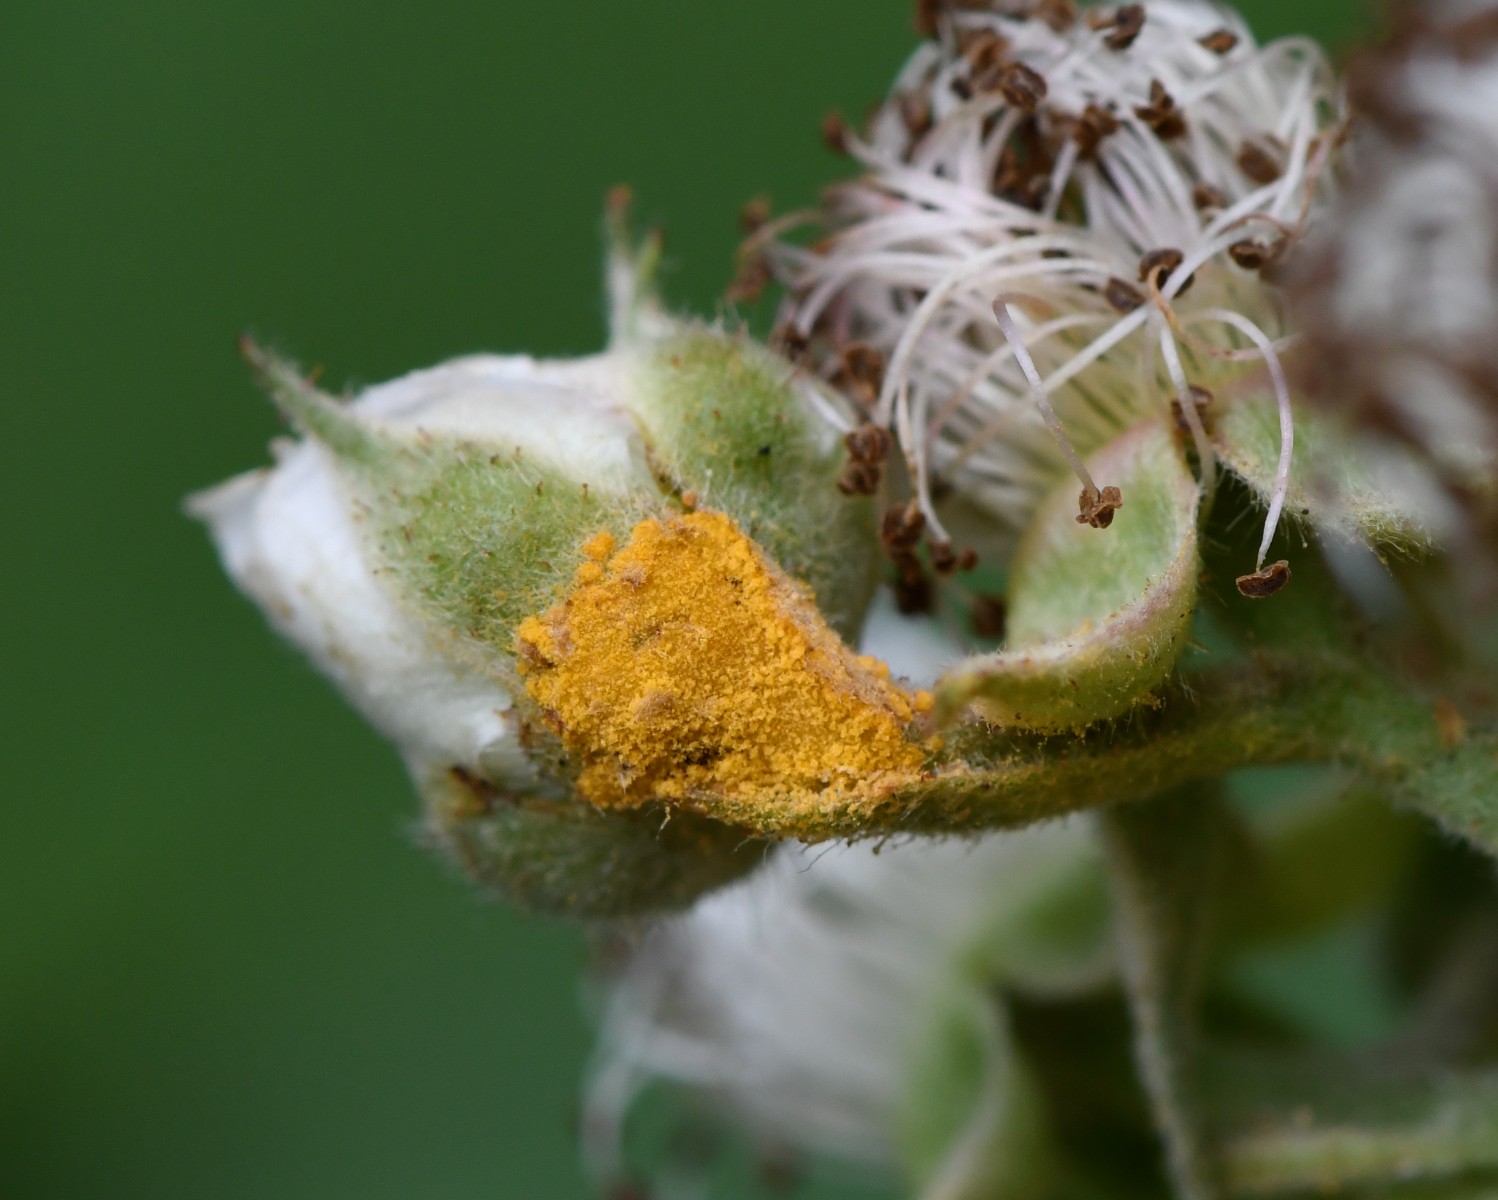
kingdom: Fungi
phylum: Basidiomycota
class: Pucciniomycetes
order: Pucciniales
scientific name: Pucciniales
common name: rustsvampeordenen
